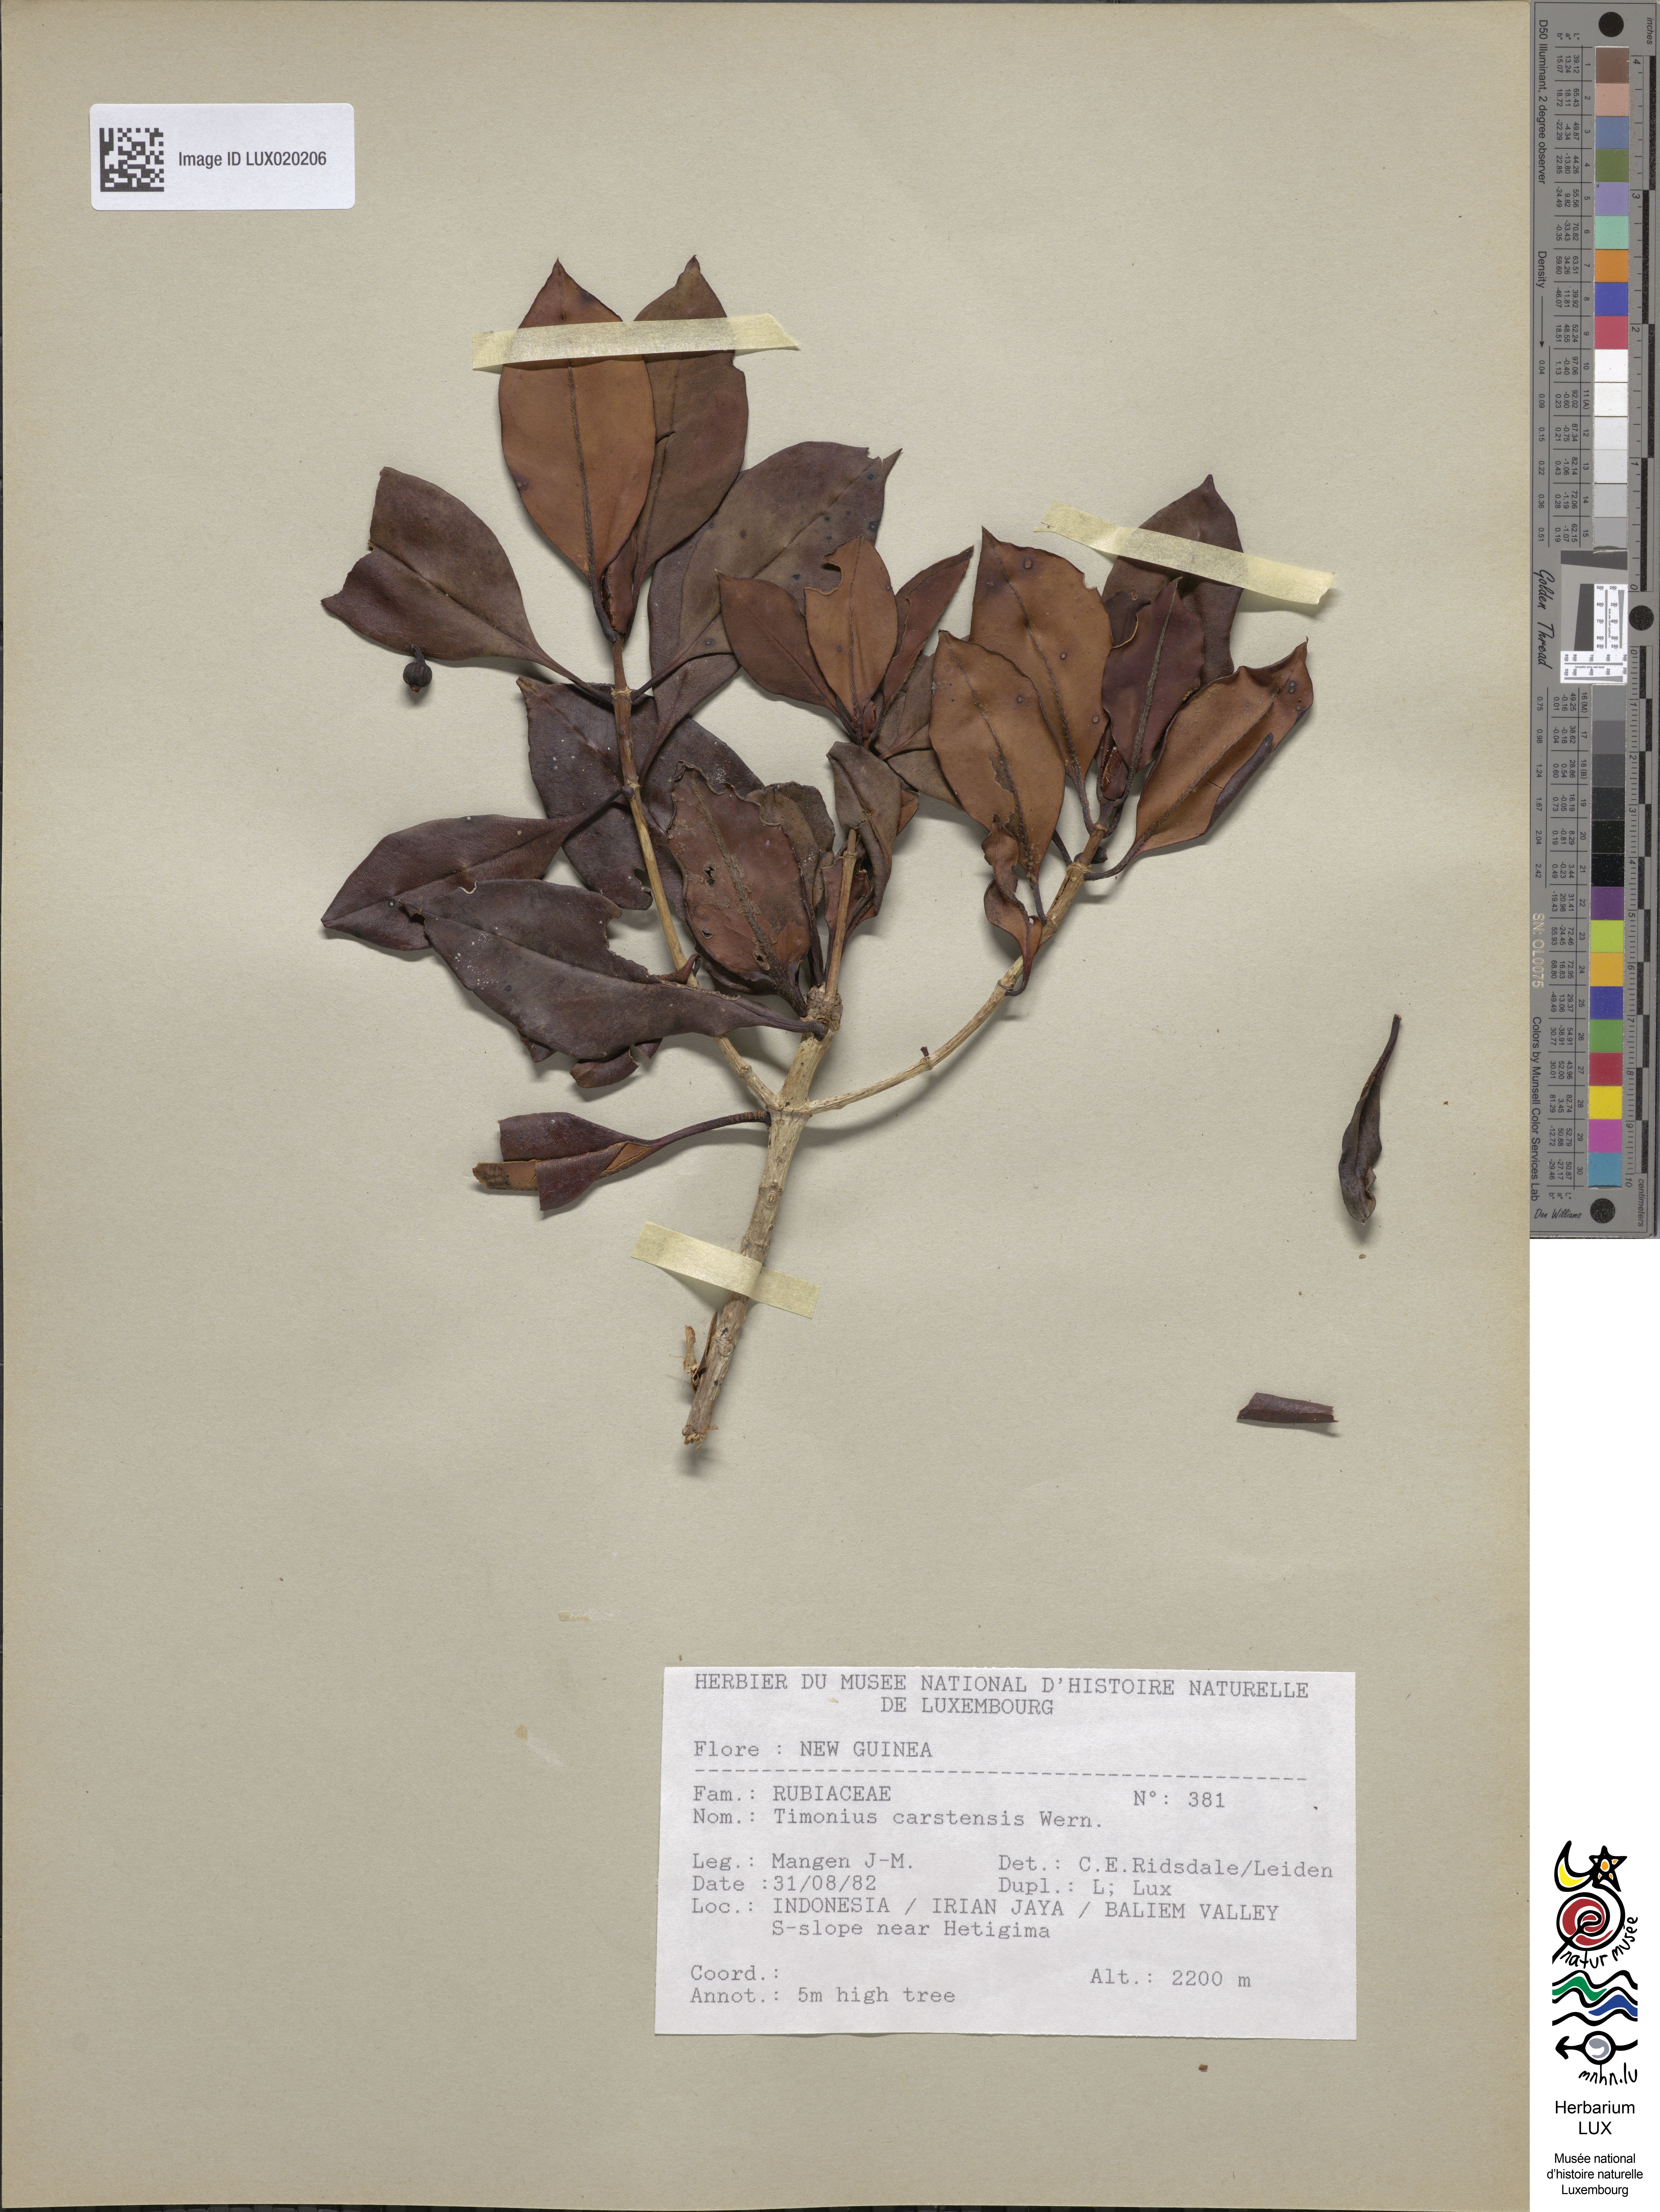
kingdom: Plantae
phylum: Tracheophyta
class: Magnoliopsida
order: Gentianales
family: Rubiaceae
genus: Timonius
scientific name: Timonius
